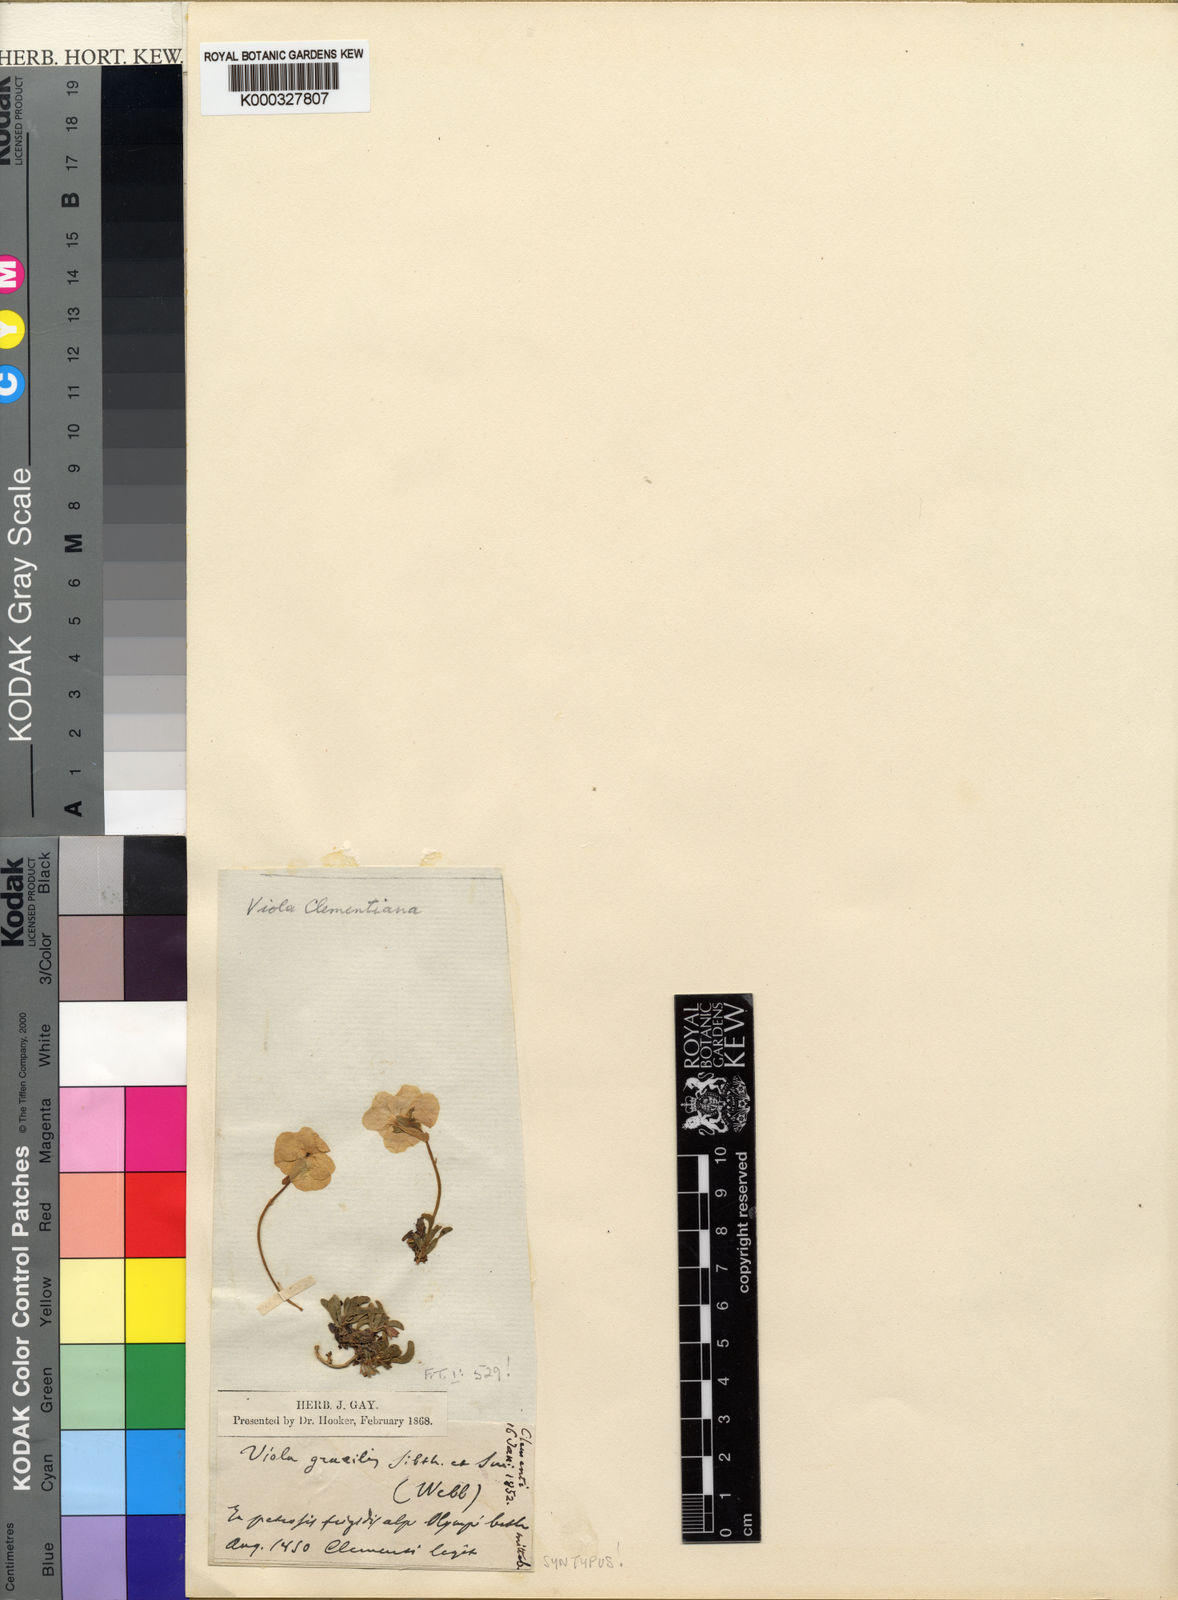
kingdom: Plantae
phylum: Tracheophyta
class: Magnoliopsida
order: Malpighiales
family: Violaceae
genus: Viola
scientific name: Viola altaica
